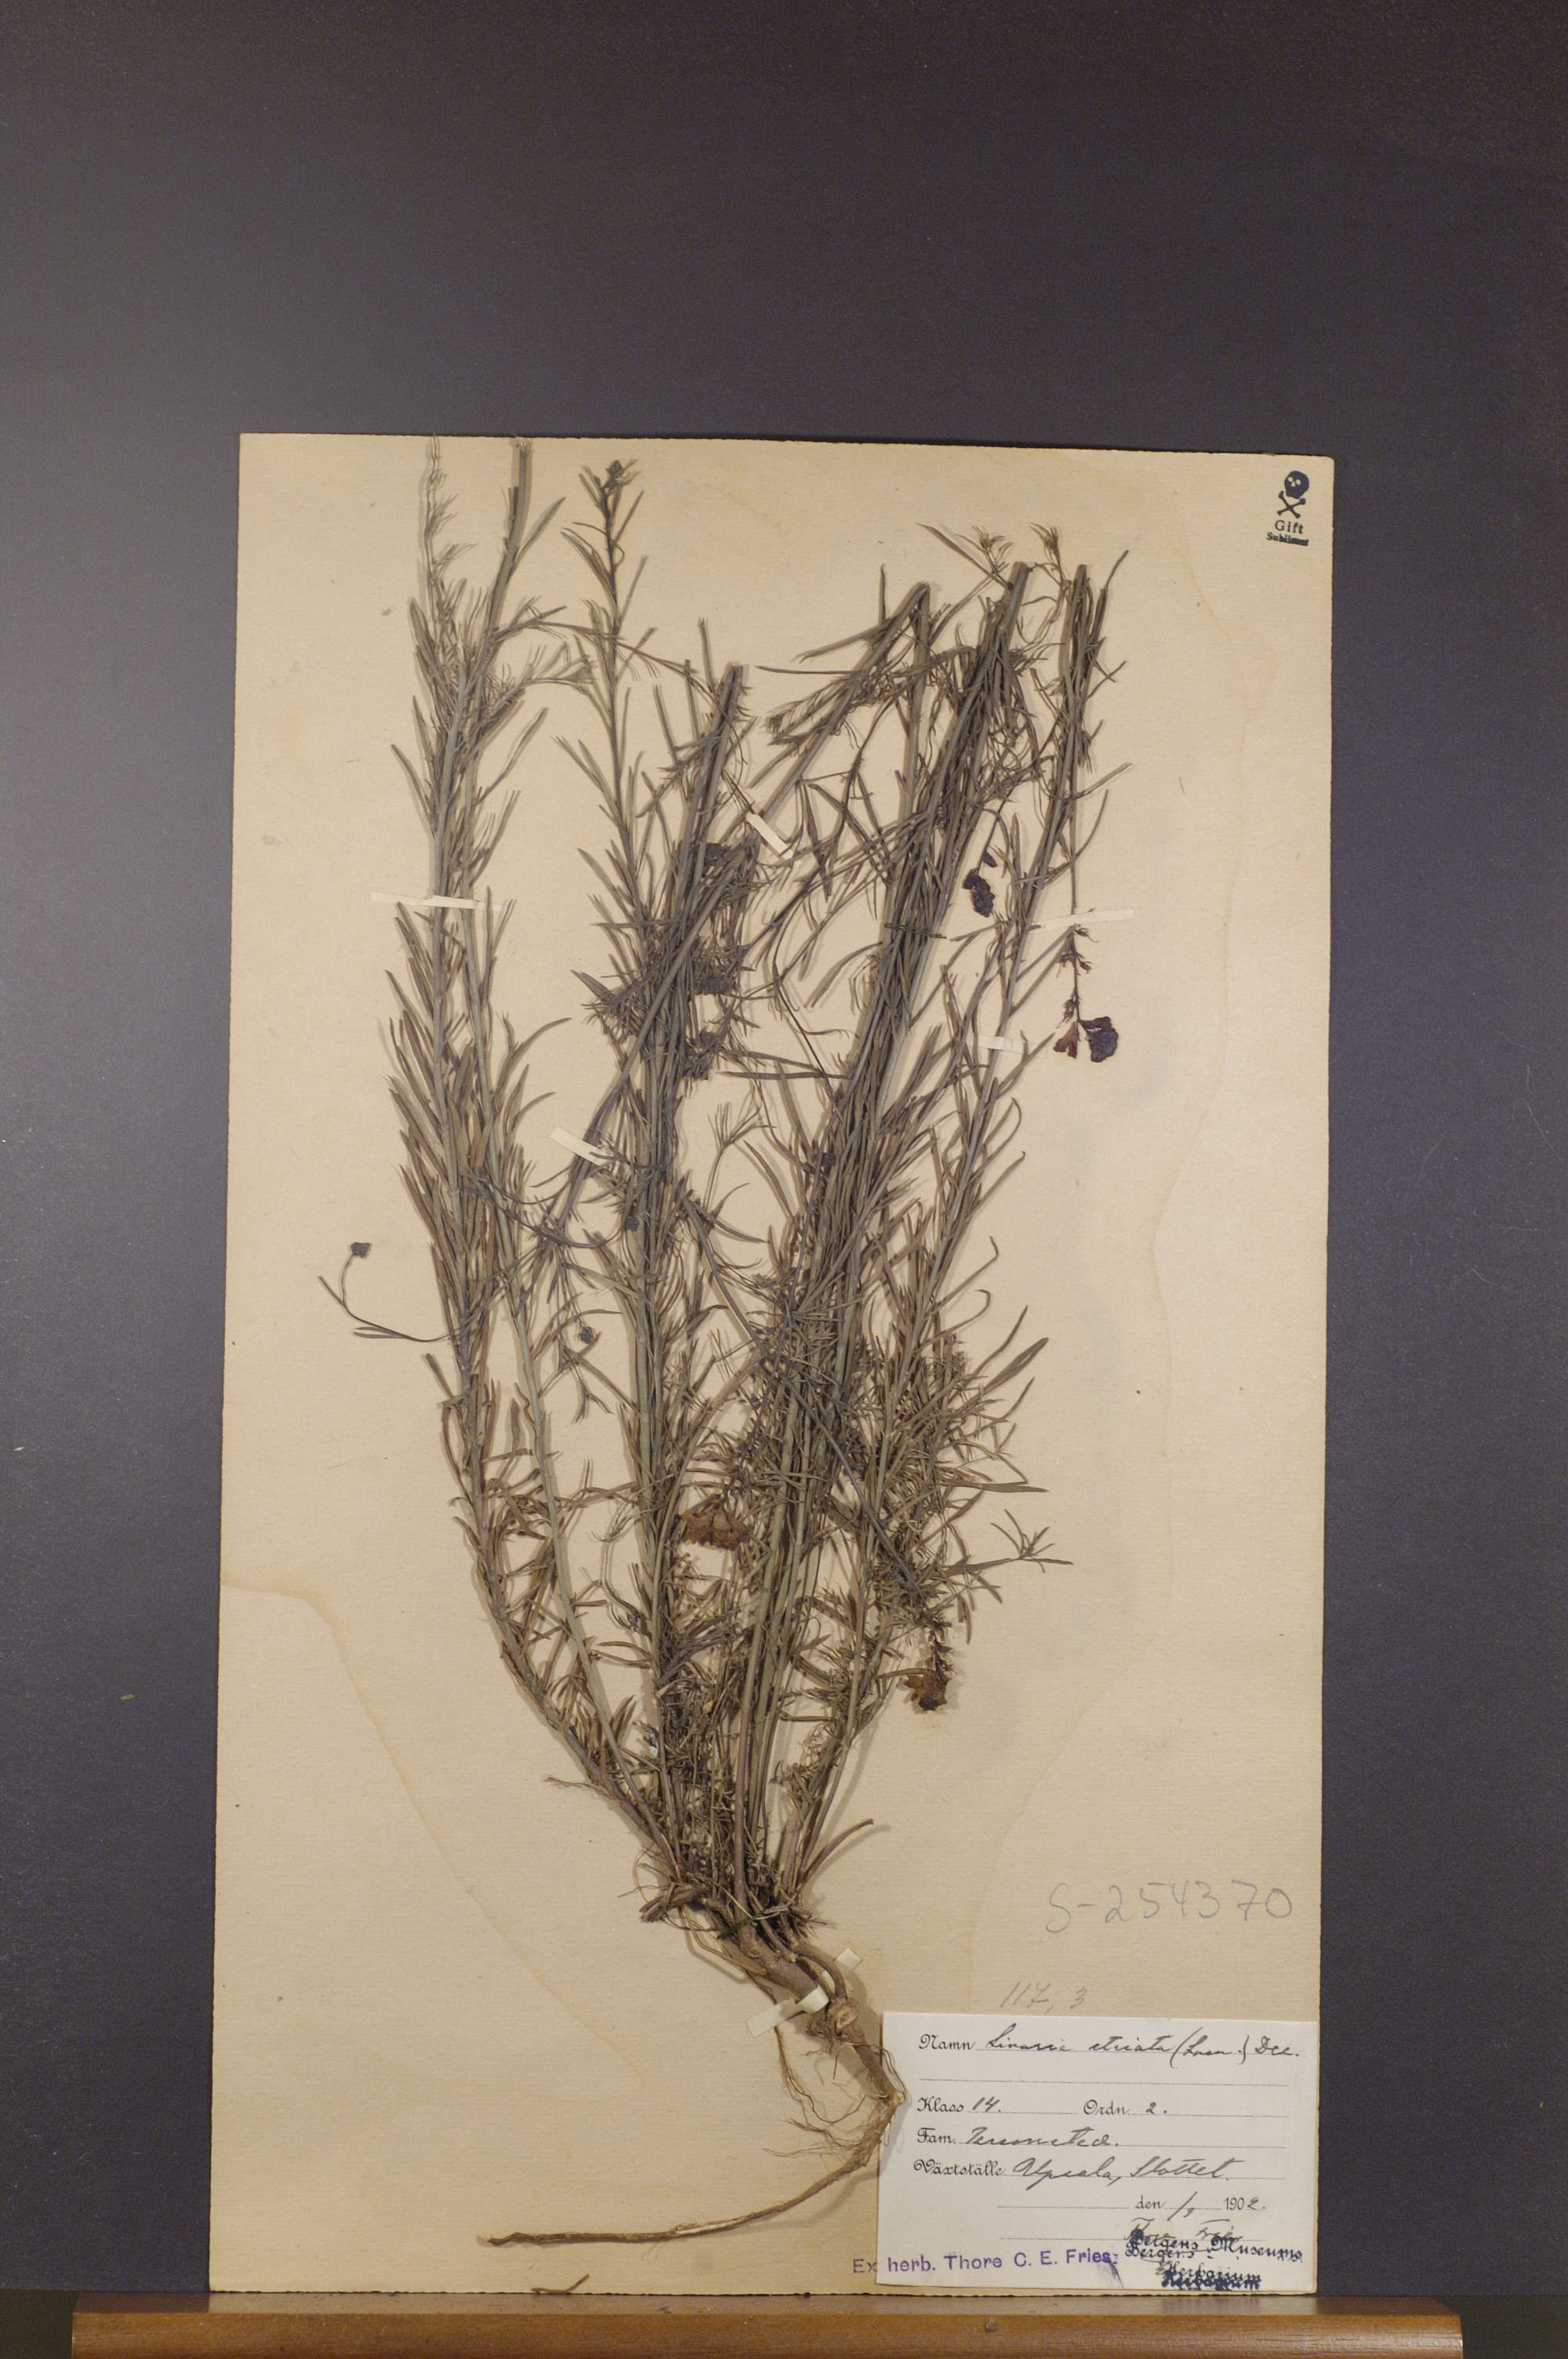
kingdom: Plantae
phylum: Tracheophyta
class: Magnoliopsida
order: Lamiales
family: Plantaginaceae
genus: Linaria
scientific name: Linaria repens
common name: Pale toadflax
